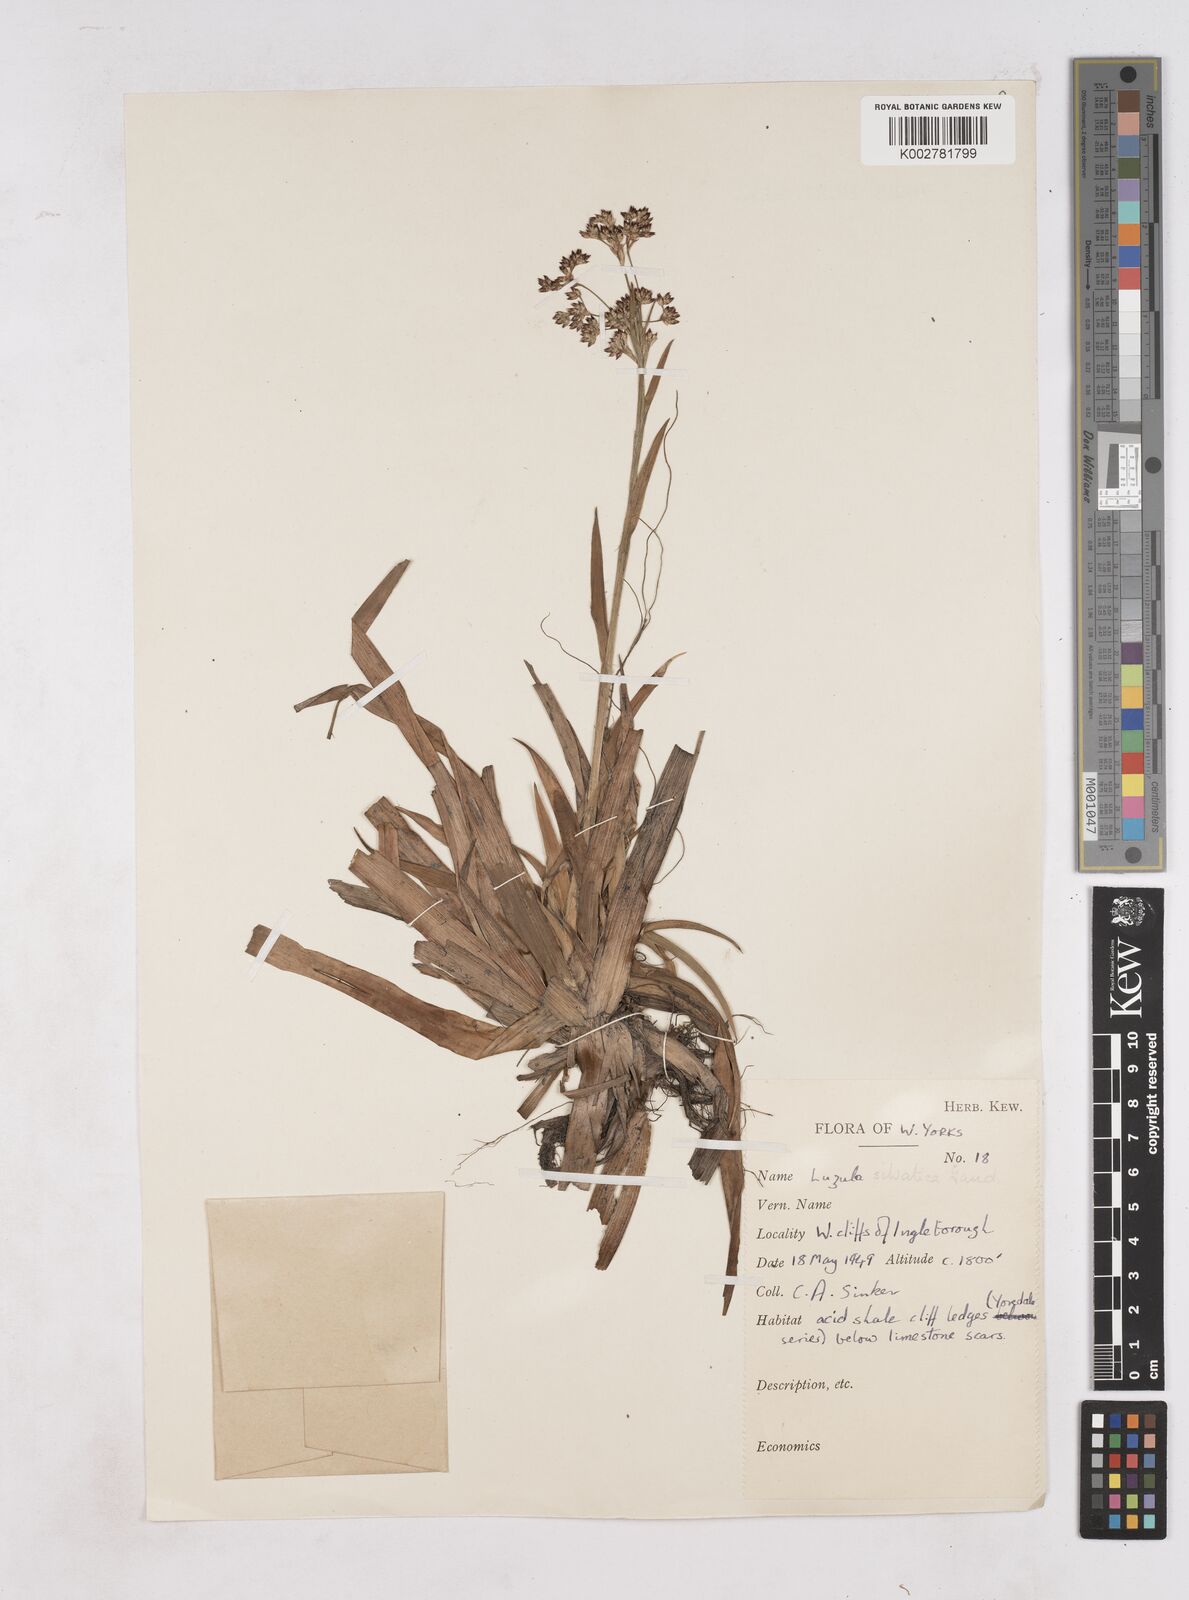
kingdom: Plantae
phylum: Tracheophyta
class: Liliopsida
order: Poales
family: Juncaceae
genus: Luzula
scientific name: Luzula sylvatica
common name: Great wood-rush
